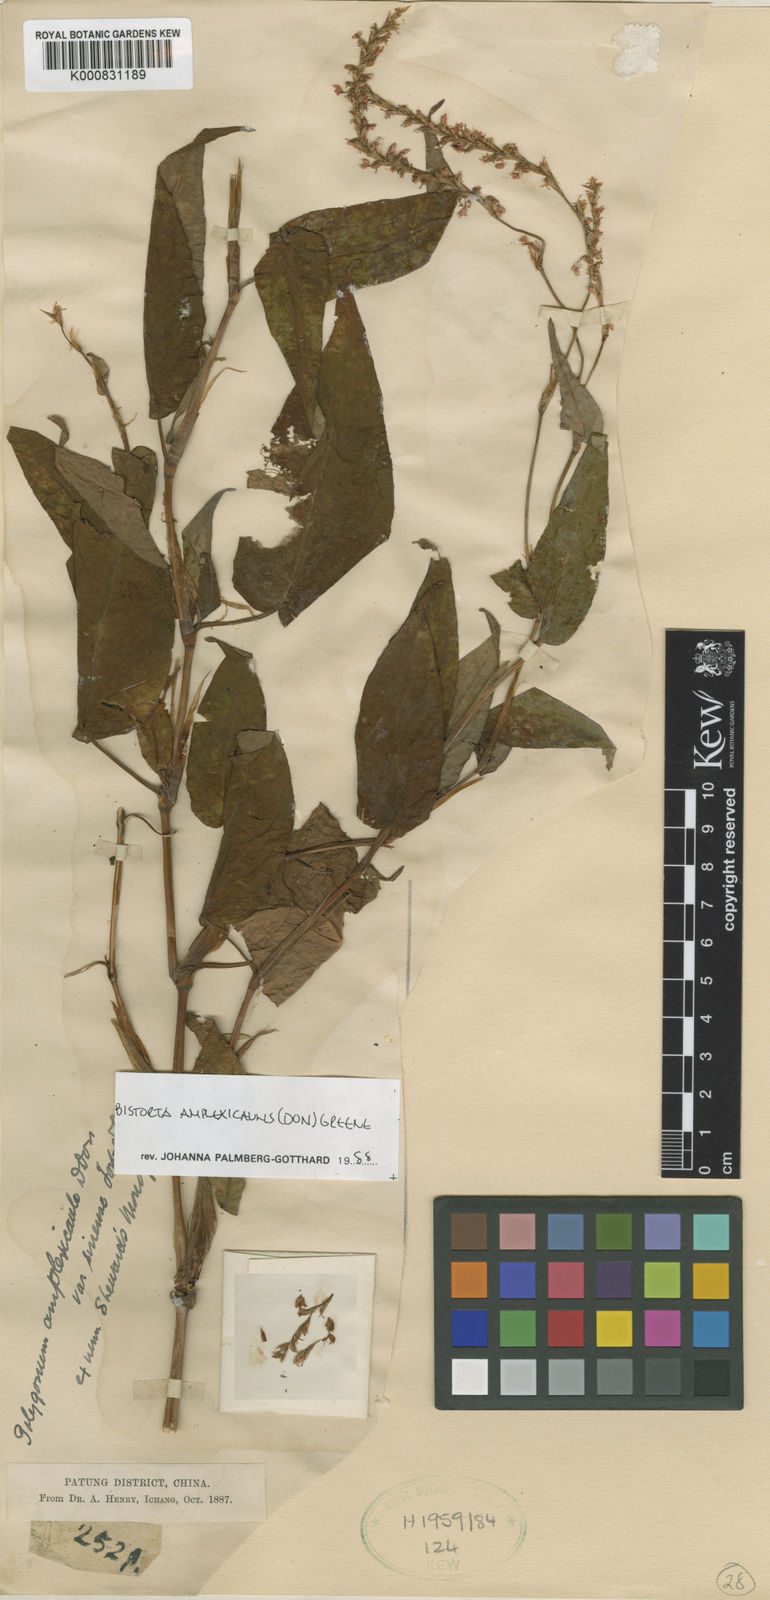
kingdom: Plantae
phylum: Tracheophyta
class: Magnoliopsida
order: Caryophyllales
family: Polygonaceae
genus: Bistorta
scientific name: Bistorta amplexicaulis
